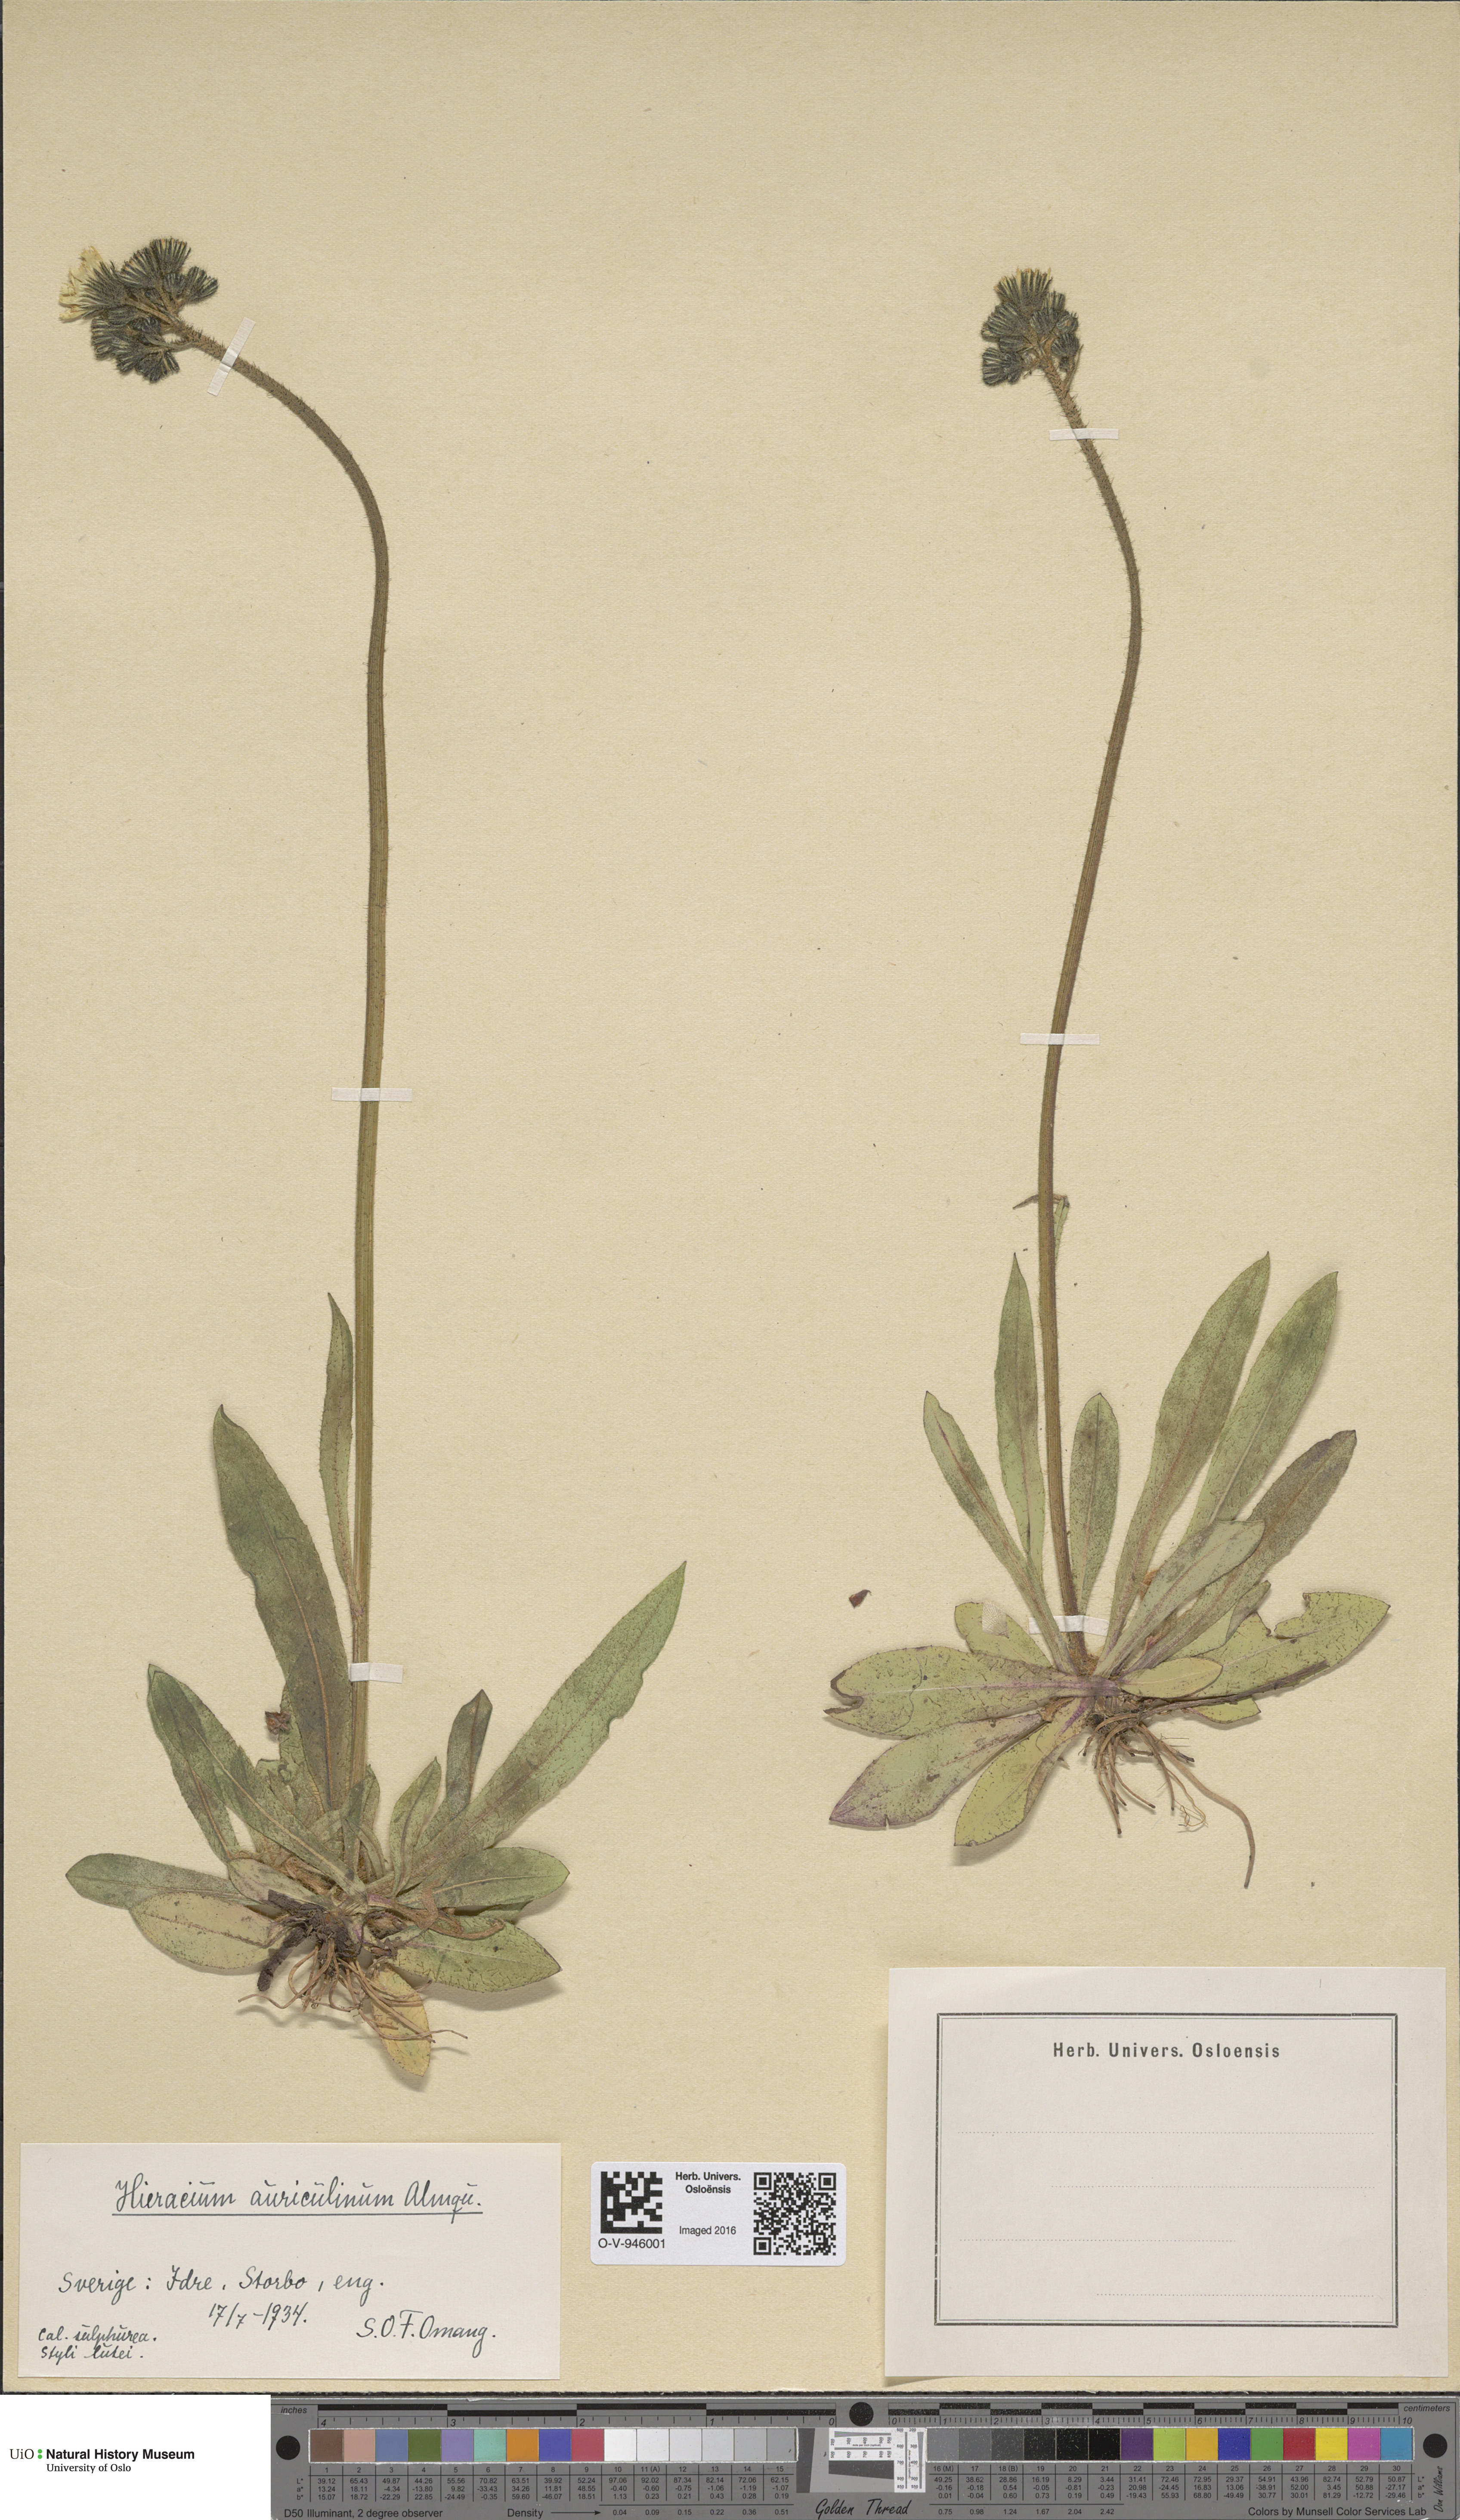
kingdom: Plantae
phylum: Tracheophyta
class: Magnoliopsida
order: Asterales
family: Asteraceae
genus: Pilosella
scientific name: Pilosella dubia
